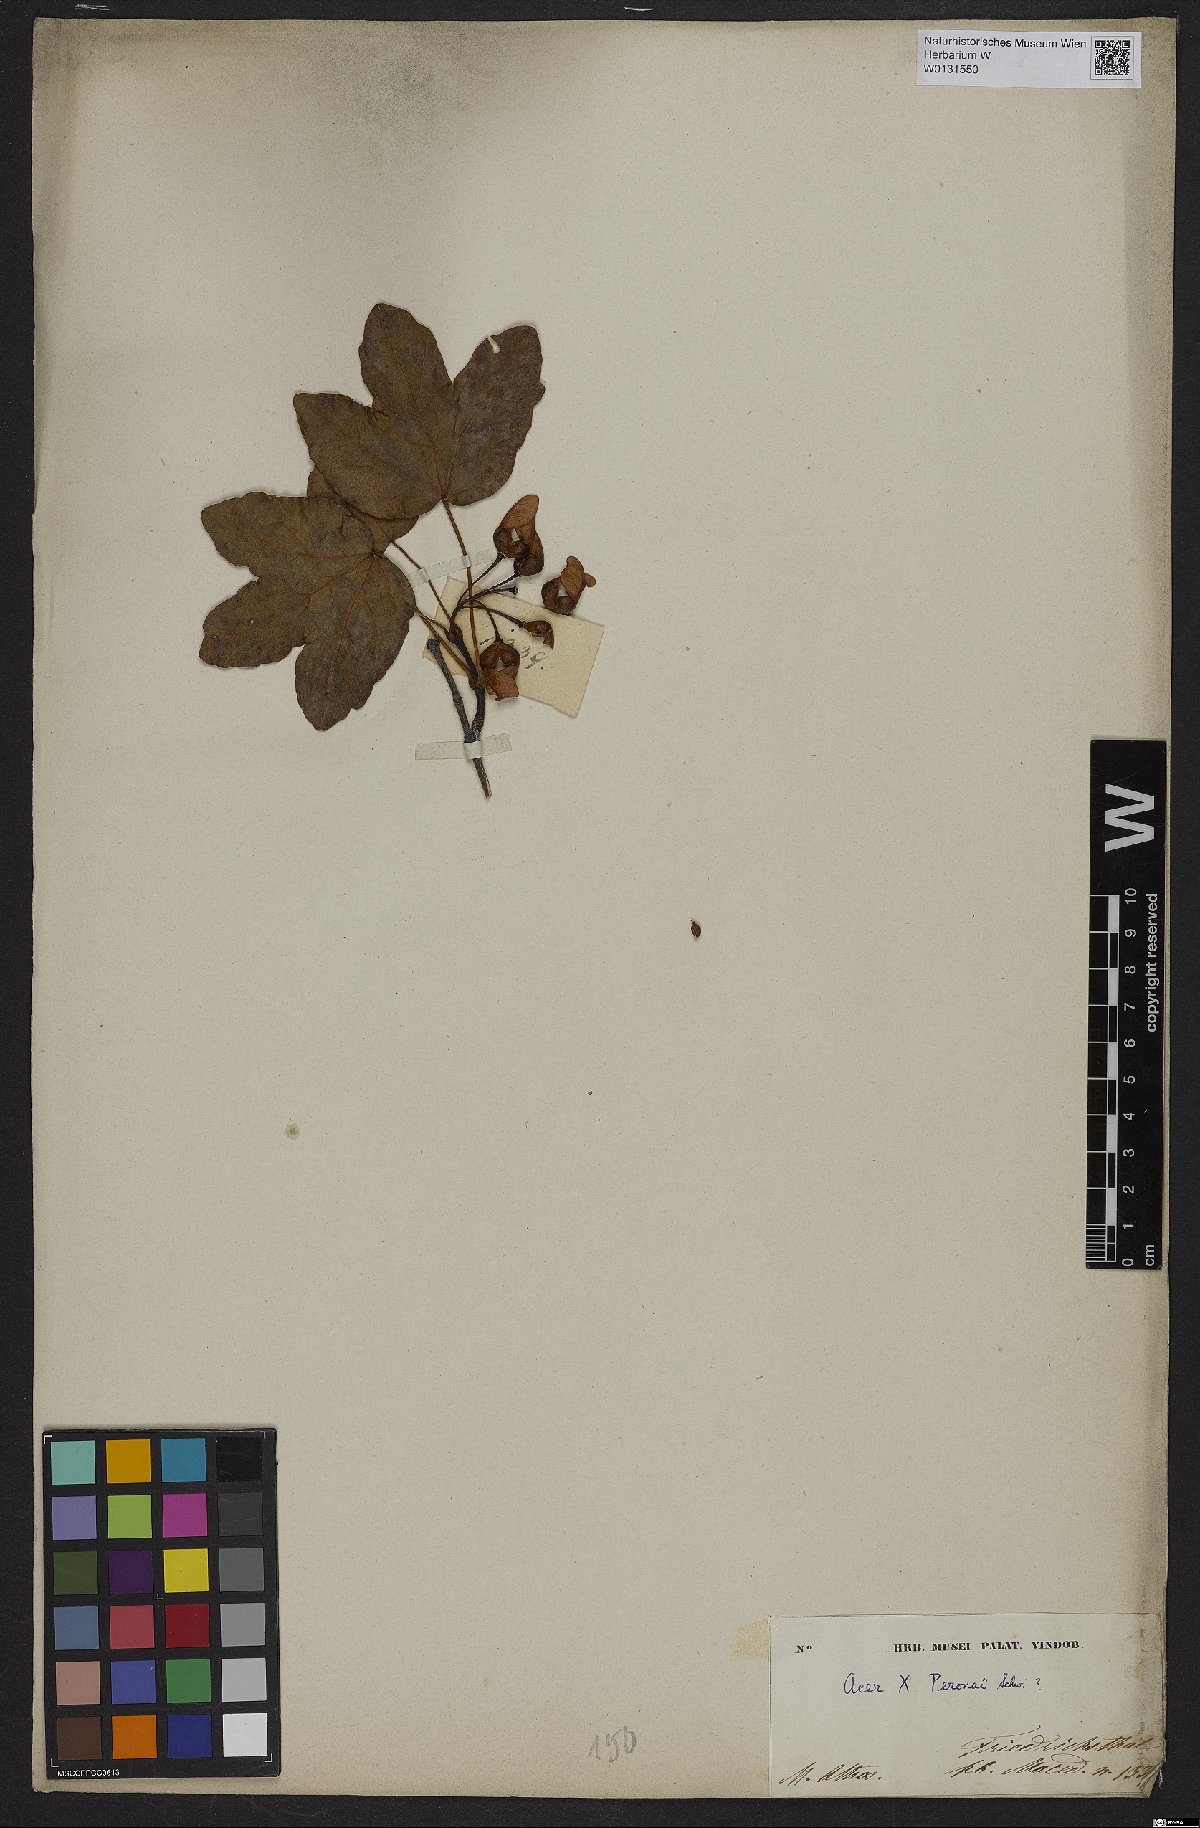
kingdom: Plantae
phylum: Tracheophyta
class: Magnoliopsida
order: Sapindales
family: Aceraceae
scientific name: Aceraceae
